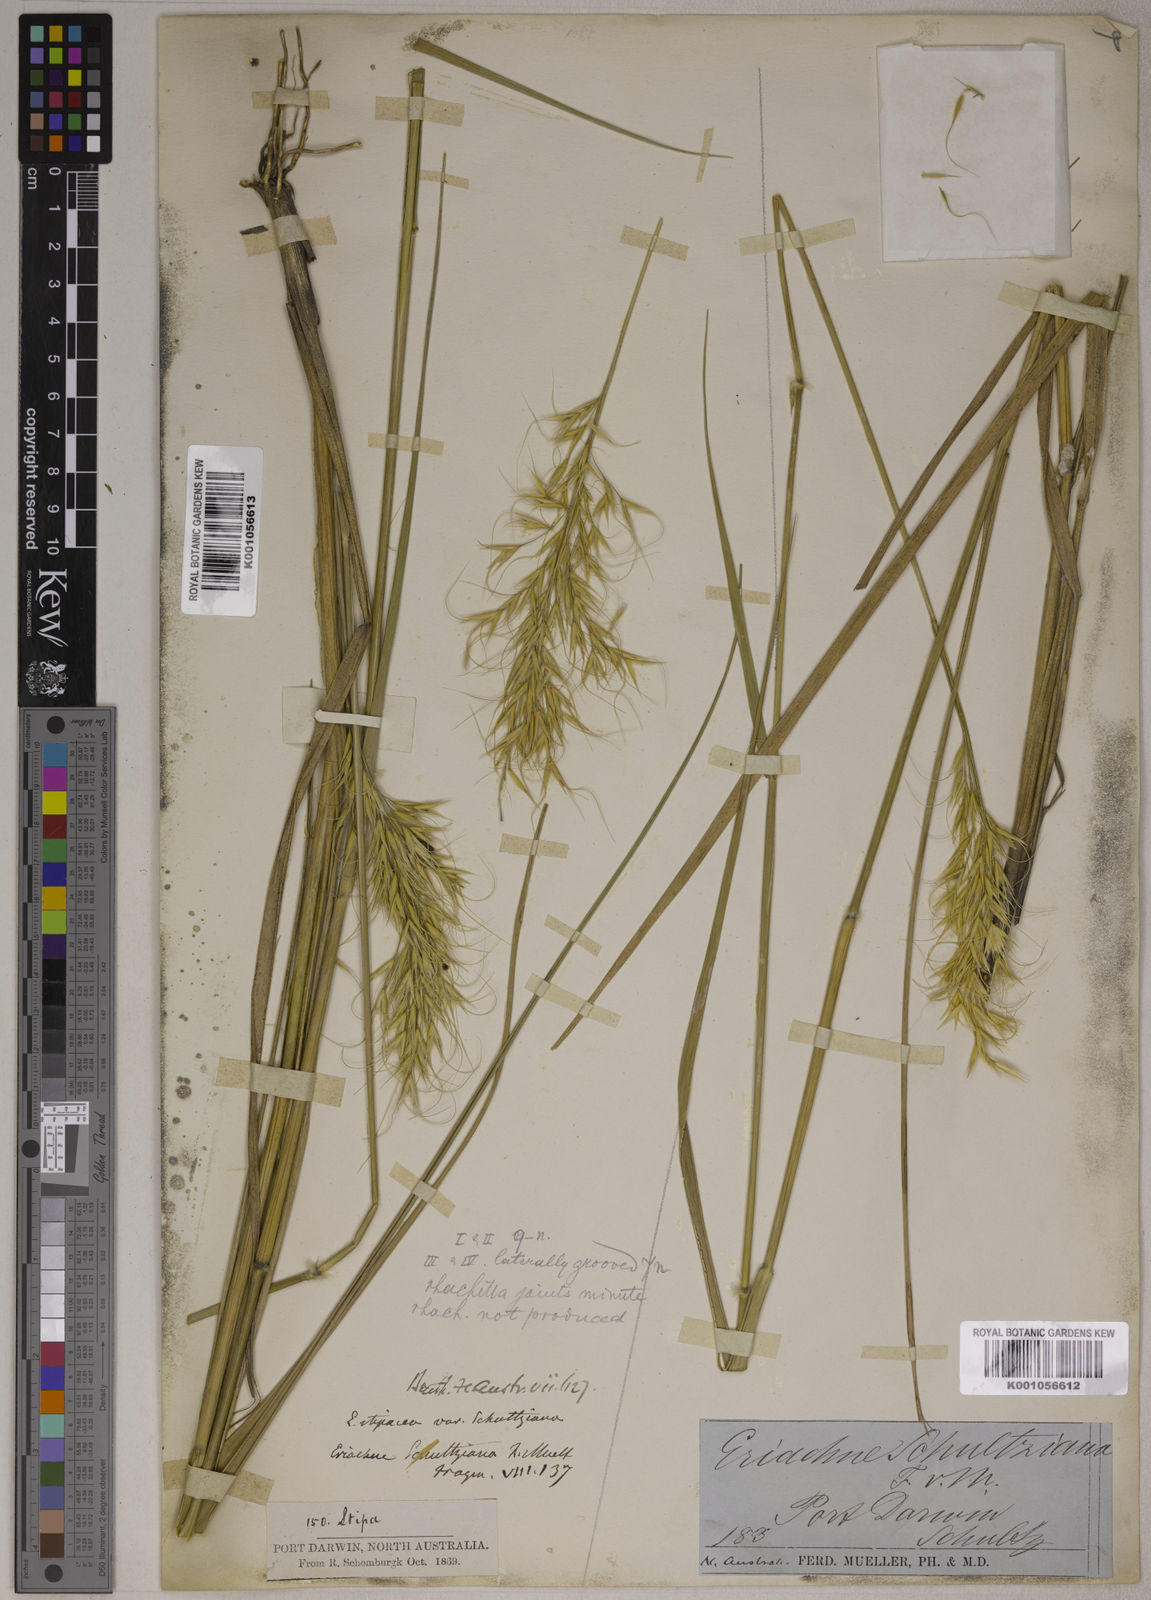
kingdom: Plantae
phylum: Tracheophyta
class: Liliopsida
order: Poales
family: Poaceae
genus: Eriachne
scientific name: Eriachne schultziana
